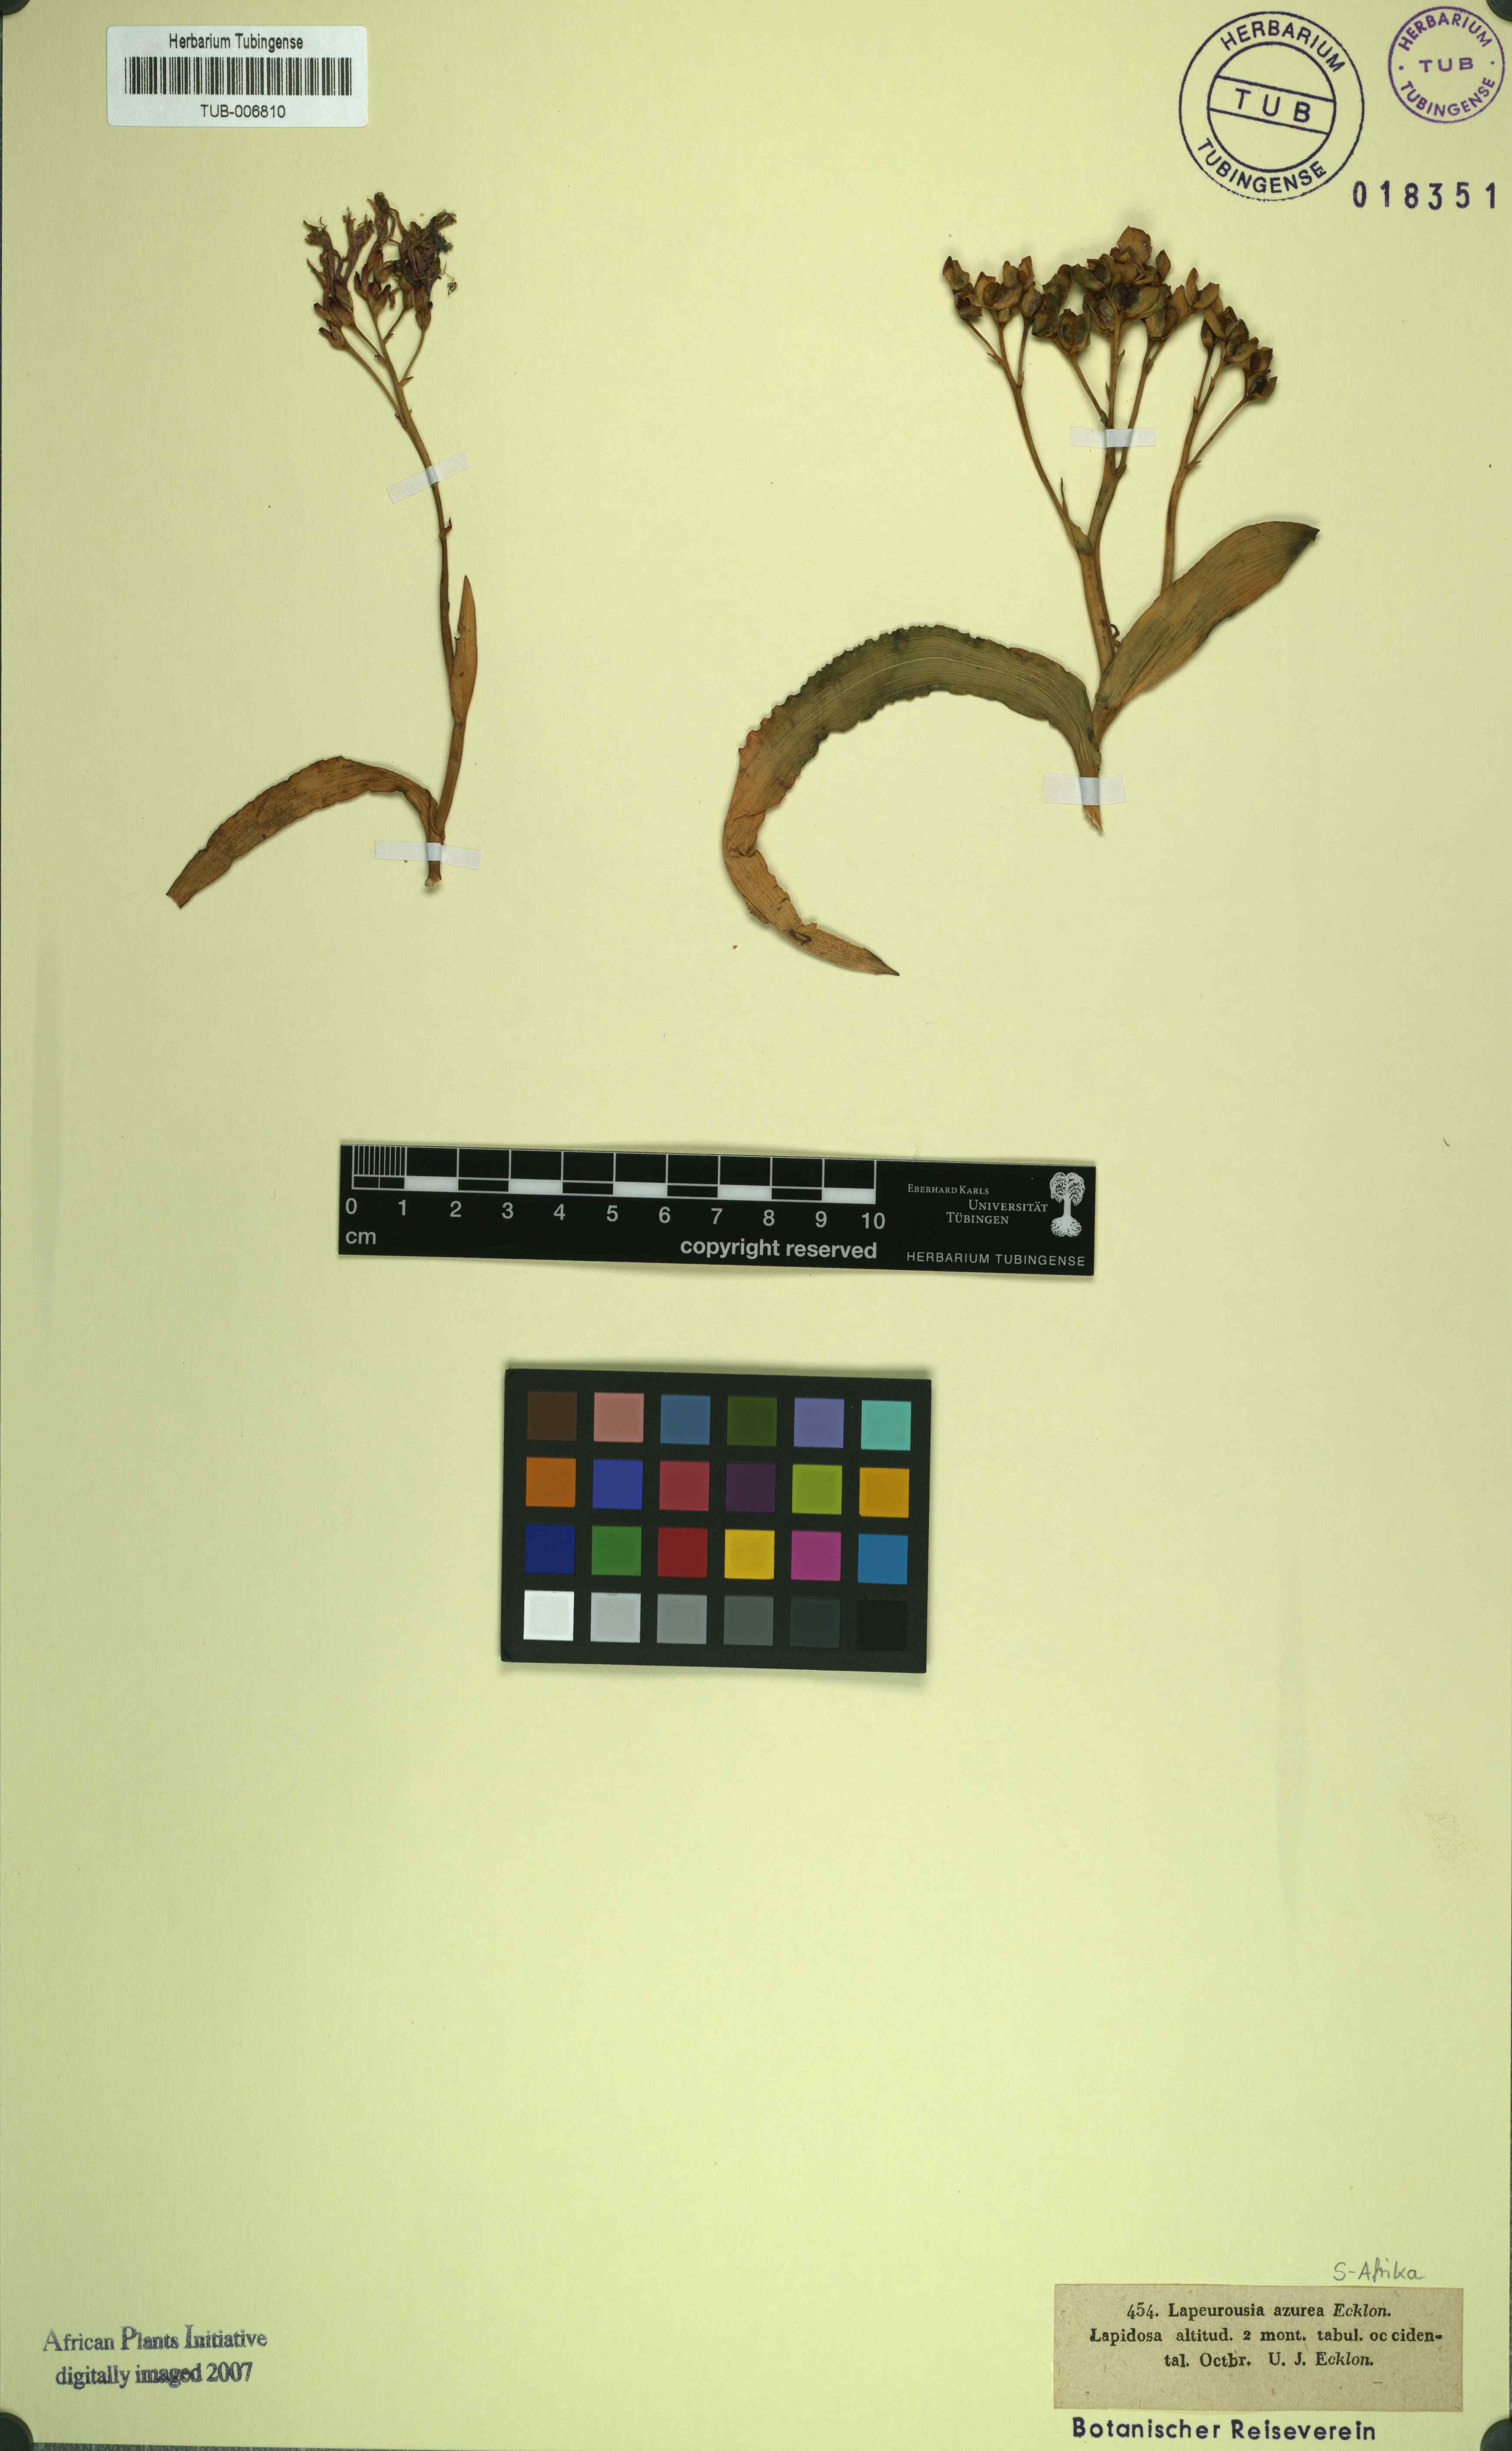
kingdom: Plantae
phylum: Tracheophyta
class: Liliopsida
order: Asparagales
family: Iridaceae
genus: Codonorhiza
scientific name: Codonorhiza corymbosa
